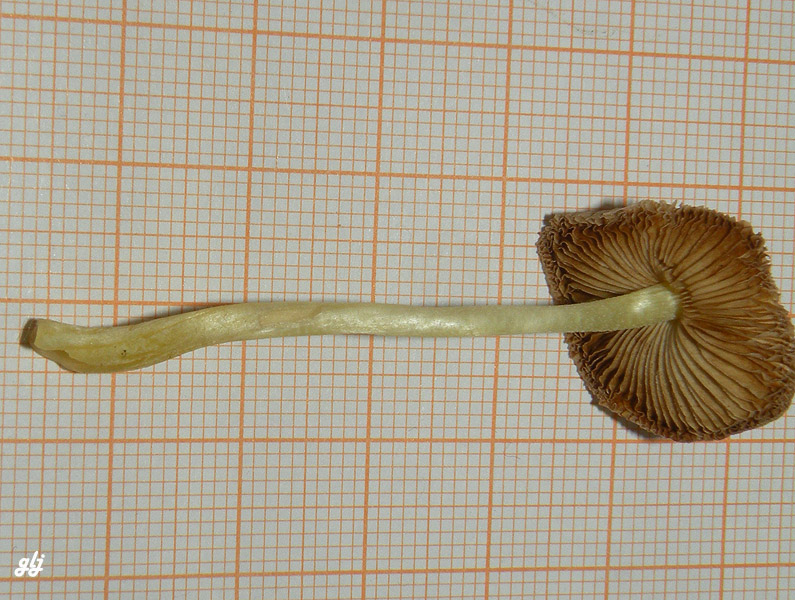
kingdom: Fungi
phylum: Basidiomycota
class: Agaricomycetes
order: Agaricales
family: Bolbitiaceae
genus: Bolbitius
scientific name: Bolbitius titubans
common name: almindelig gulhat
